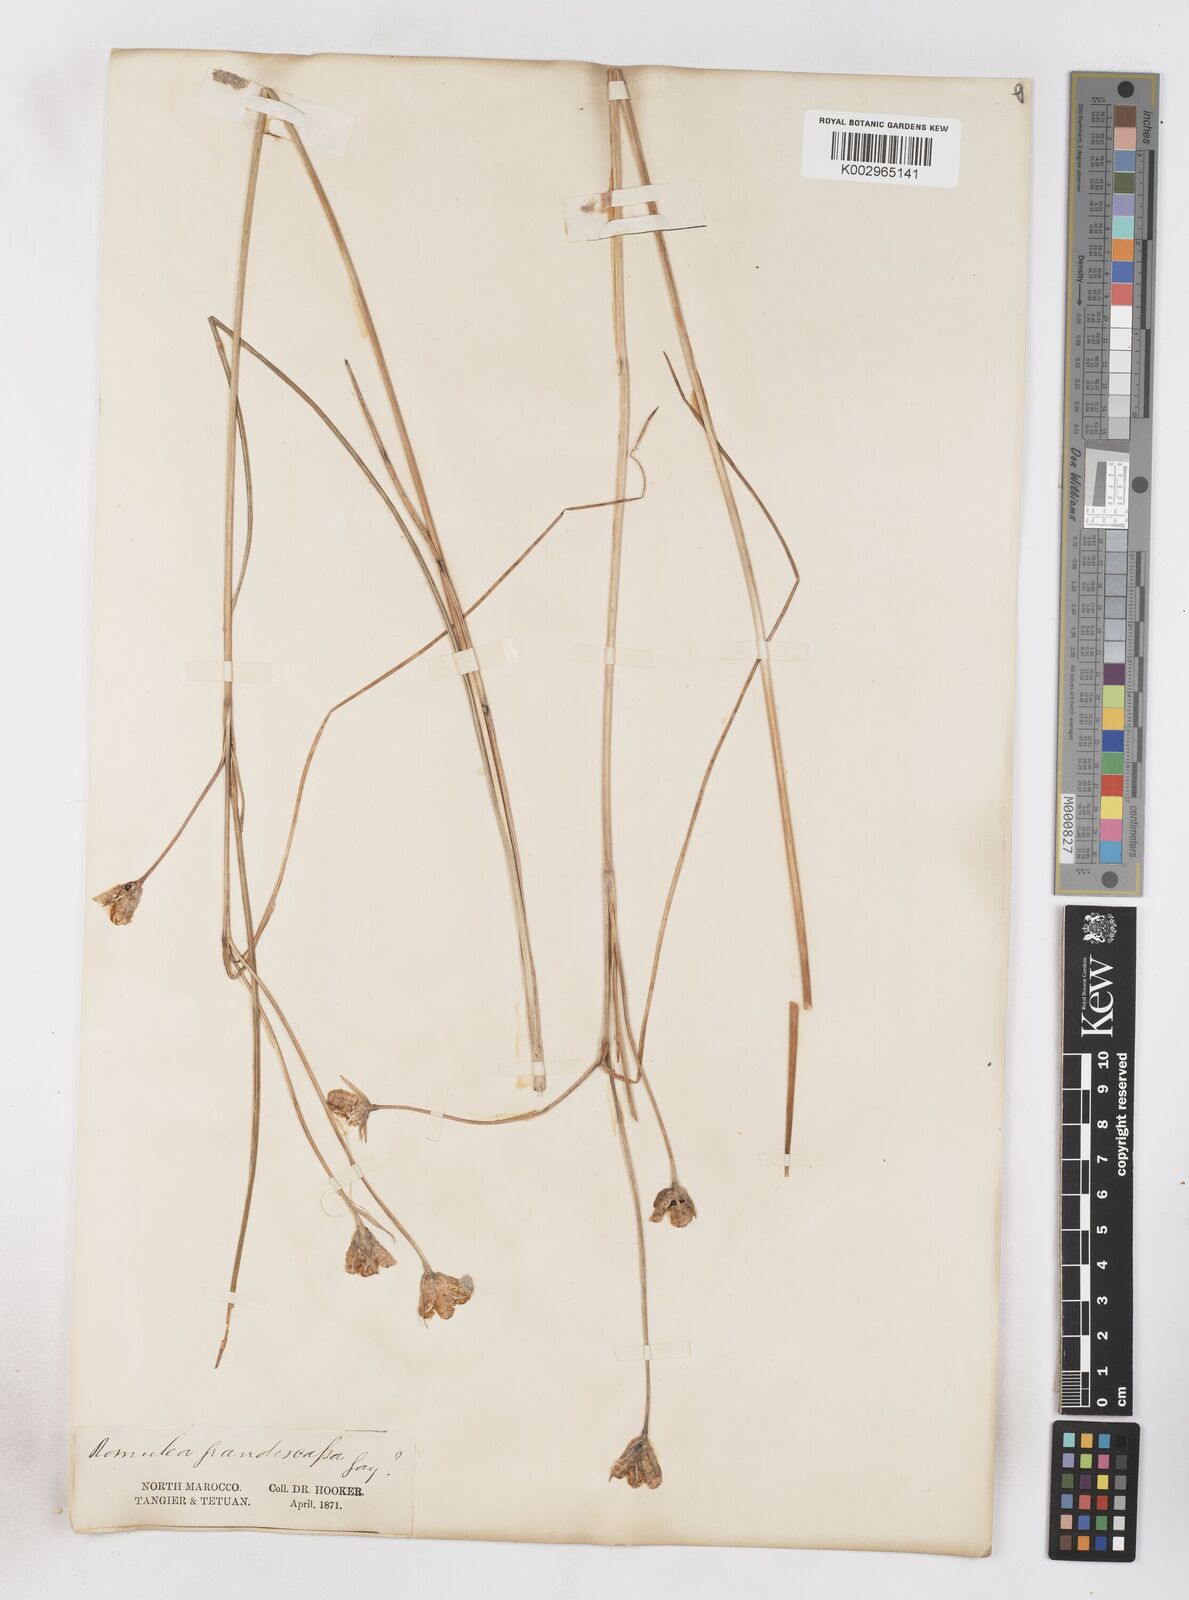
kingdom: Plantae
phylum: Tracheophyta
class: Liliopsida
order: Asparagales
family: Iridaceae
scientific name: Iridaceae
